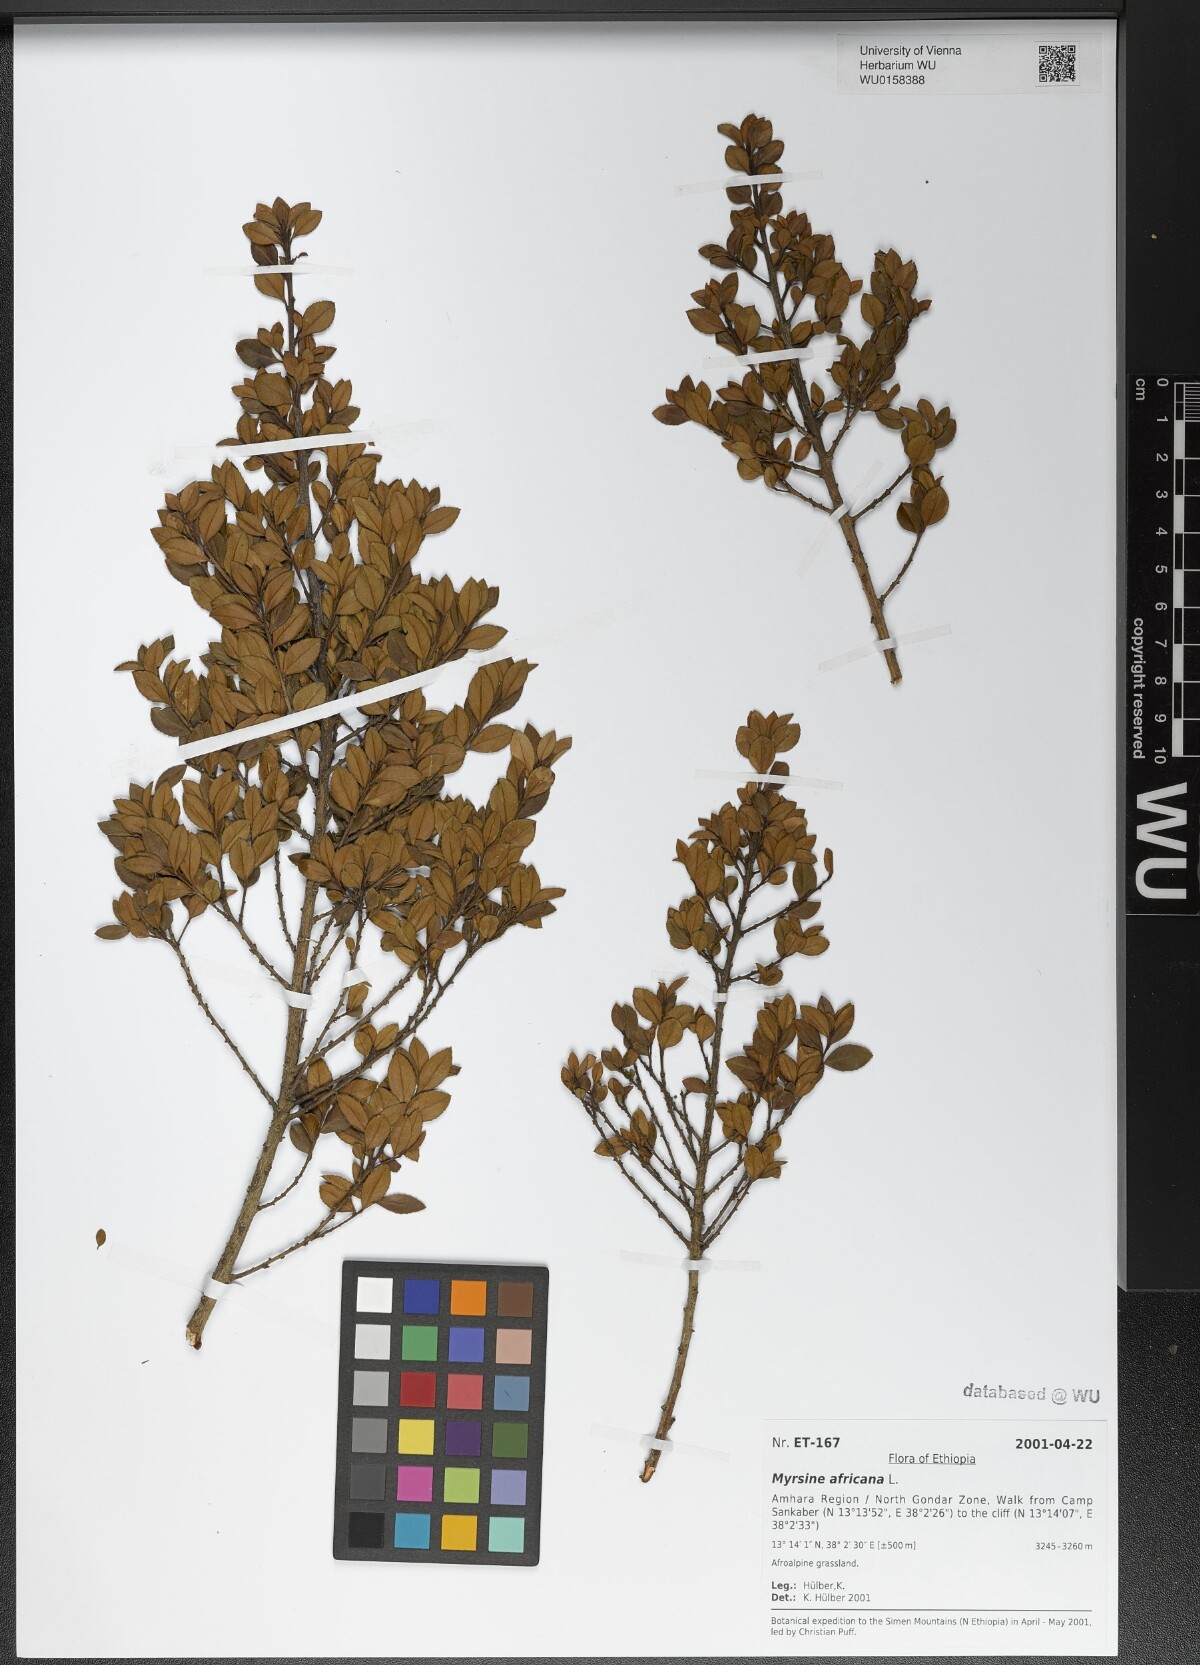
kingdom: Plantae
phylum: Tracheophyta
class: Magnoliopsida
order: Ericales
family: Primulaceae
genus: Myrsine
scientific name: Myrsine africana
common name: African-boxwood
